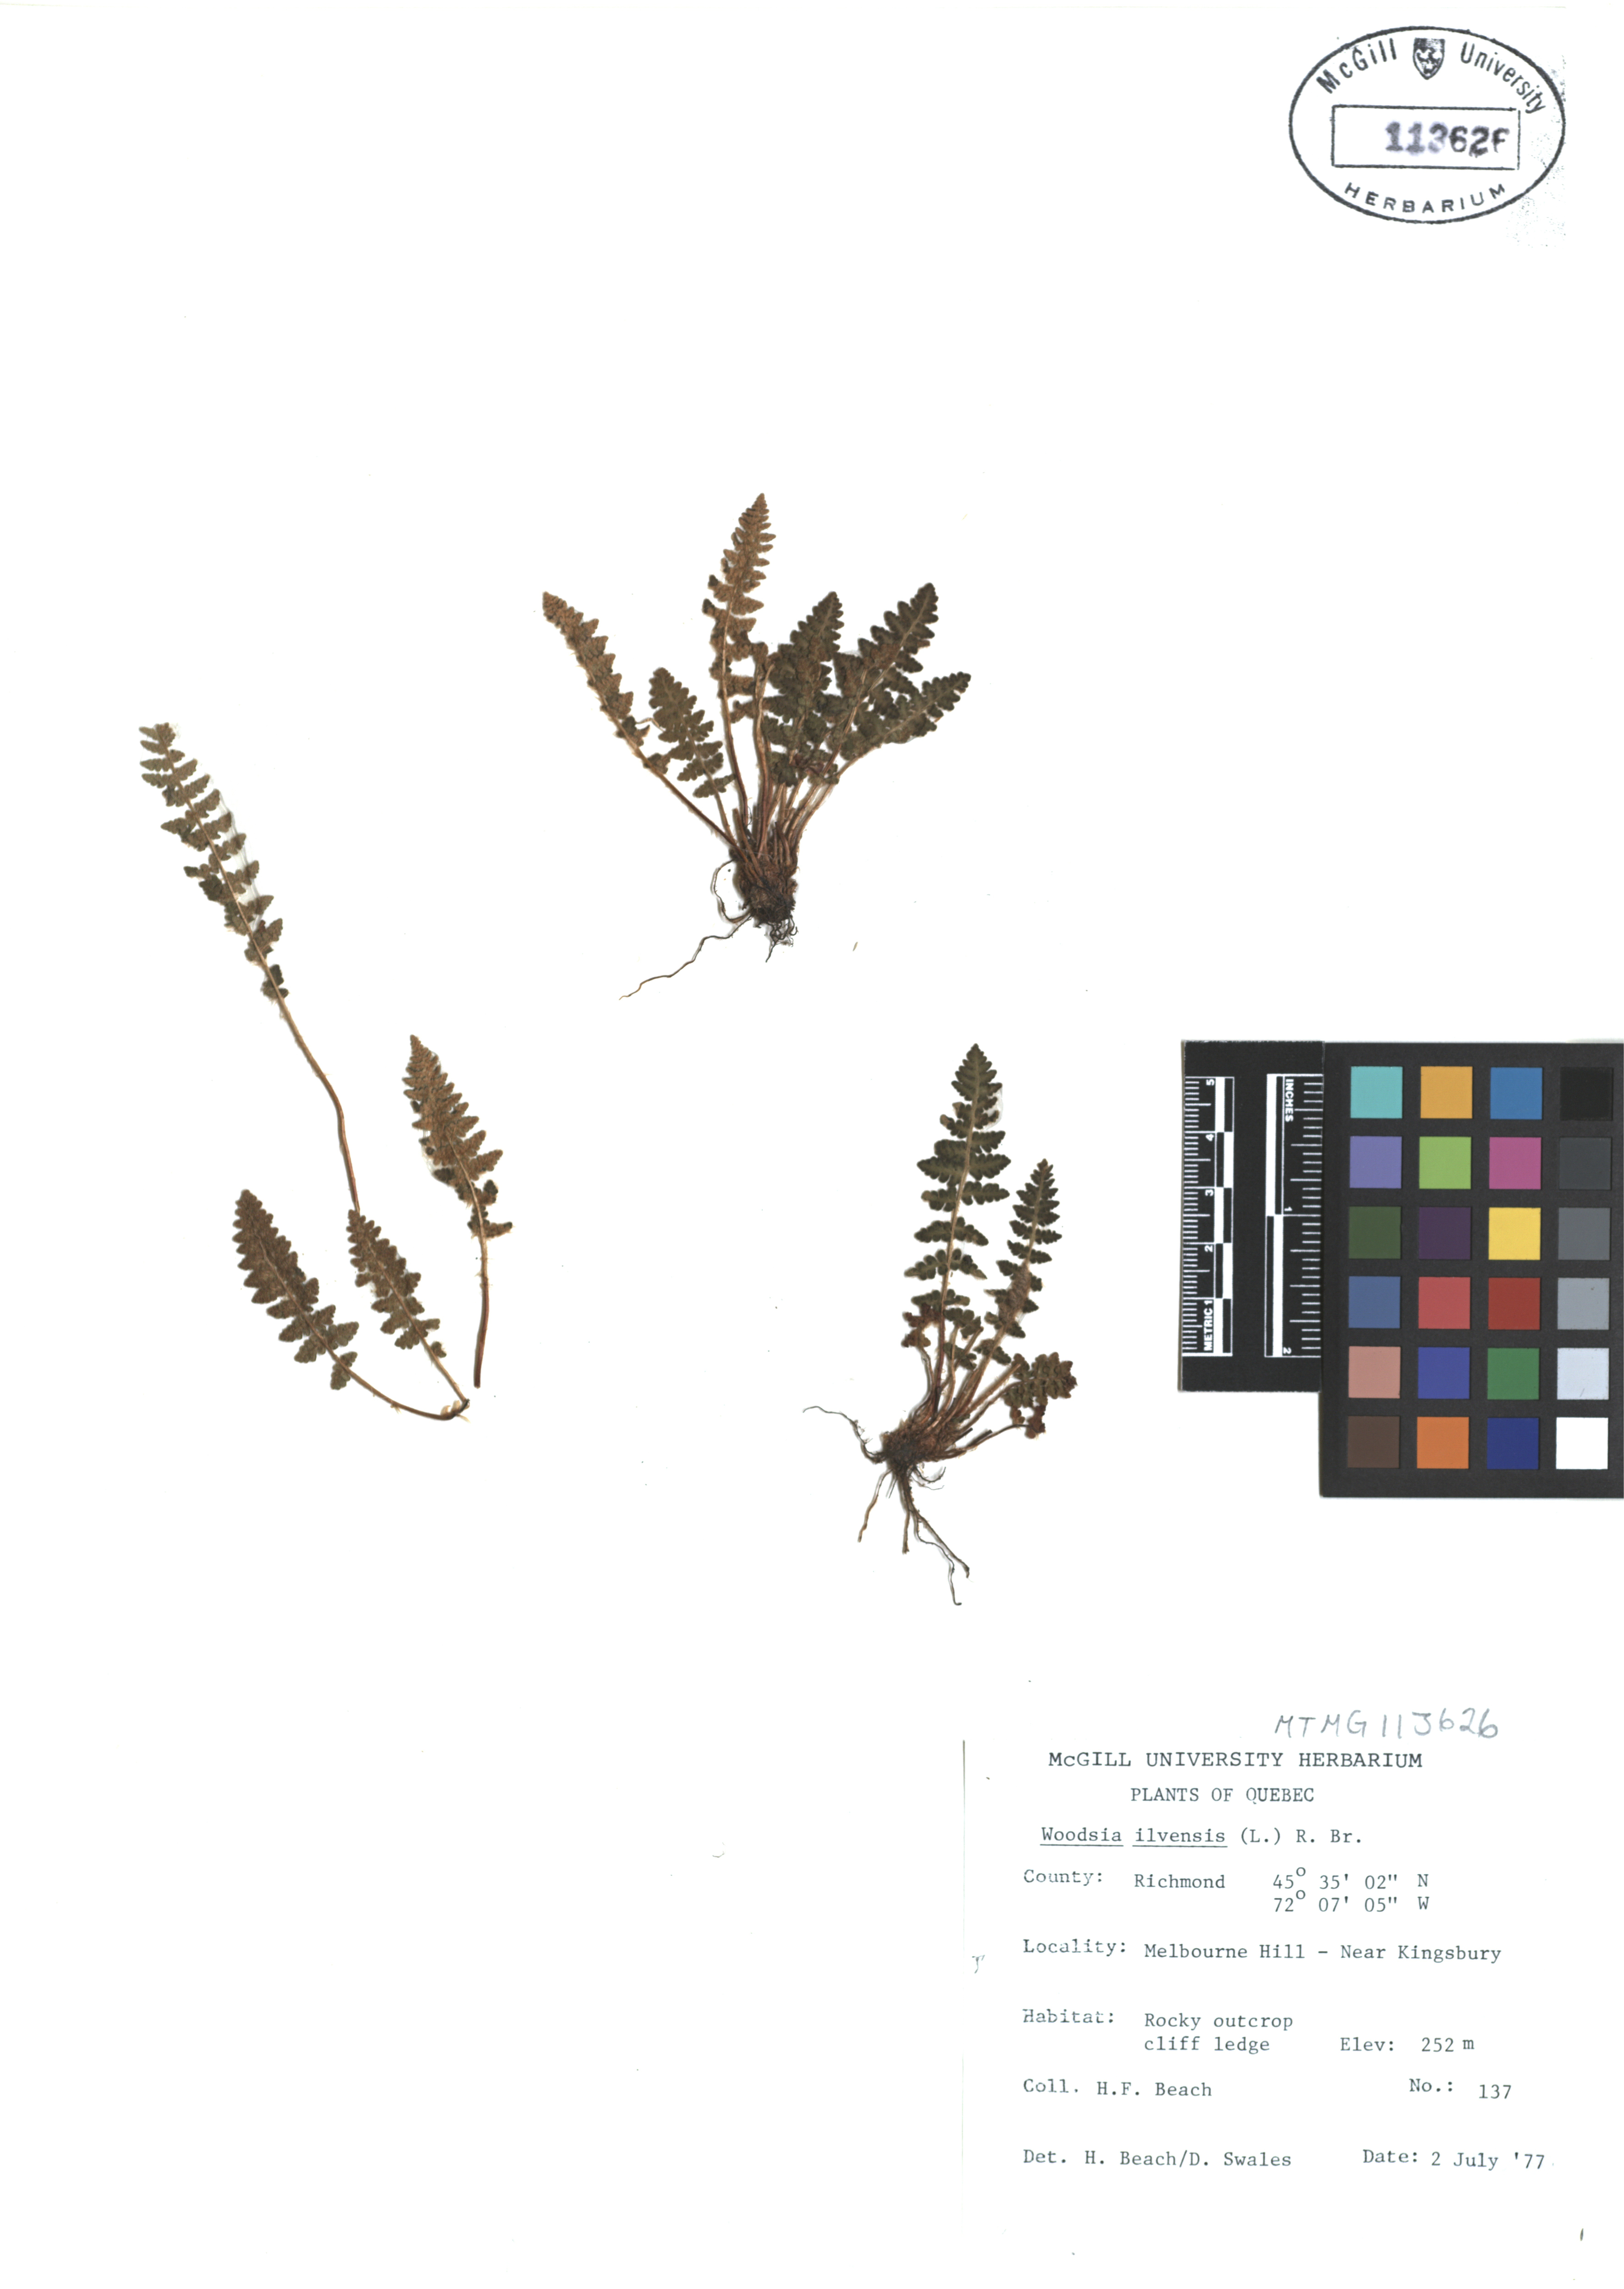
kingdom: Plantae
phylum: Tracheophyta
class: Polypodiopsida
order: Polypodiales
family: Woodsiaceae
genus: Woodsia
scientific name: Woodsia ilvensis
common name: Fragrant woodsia
